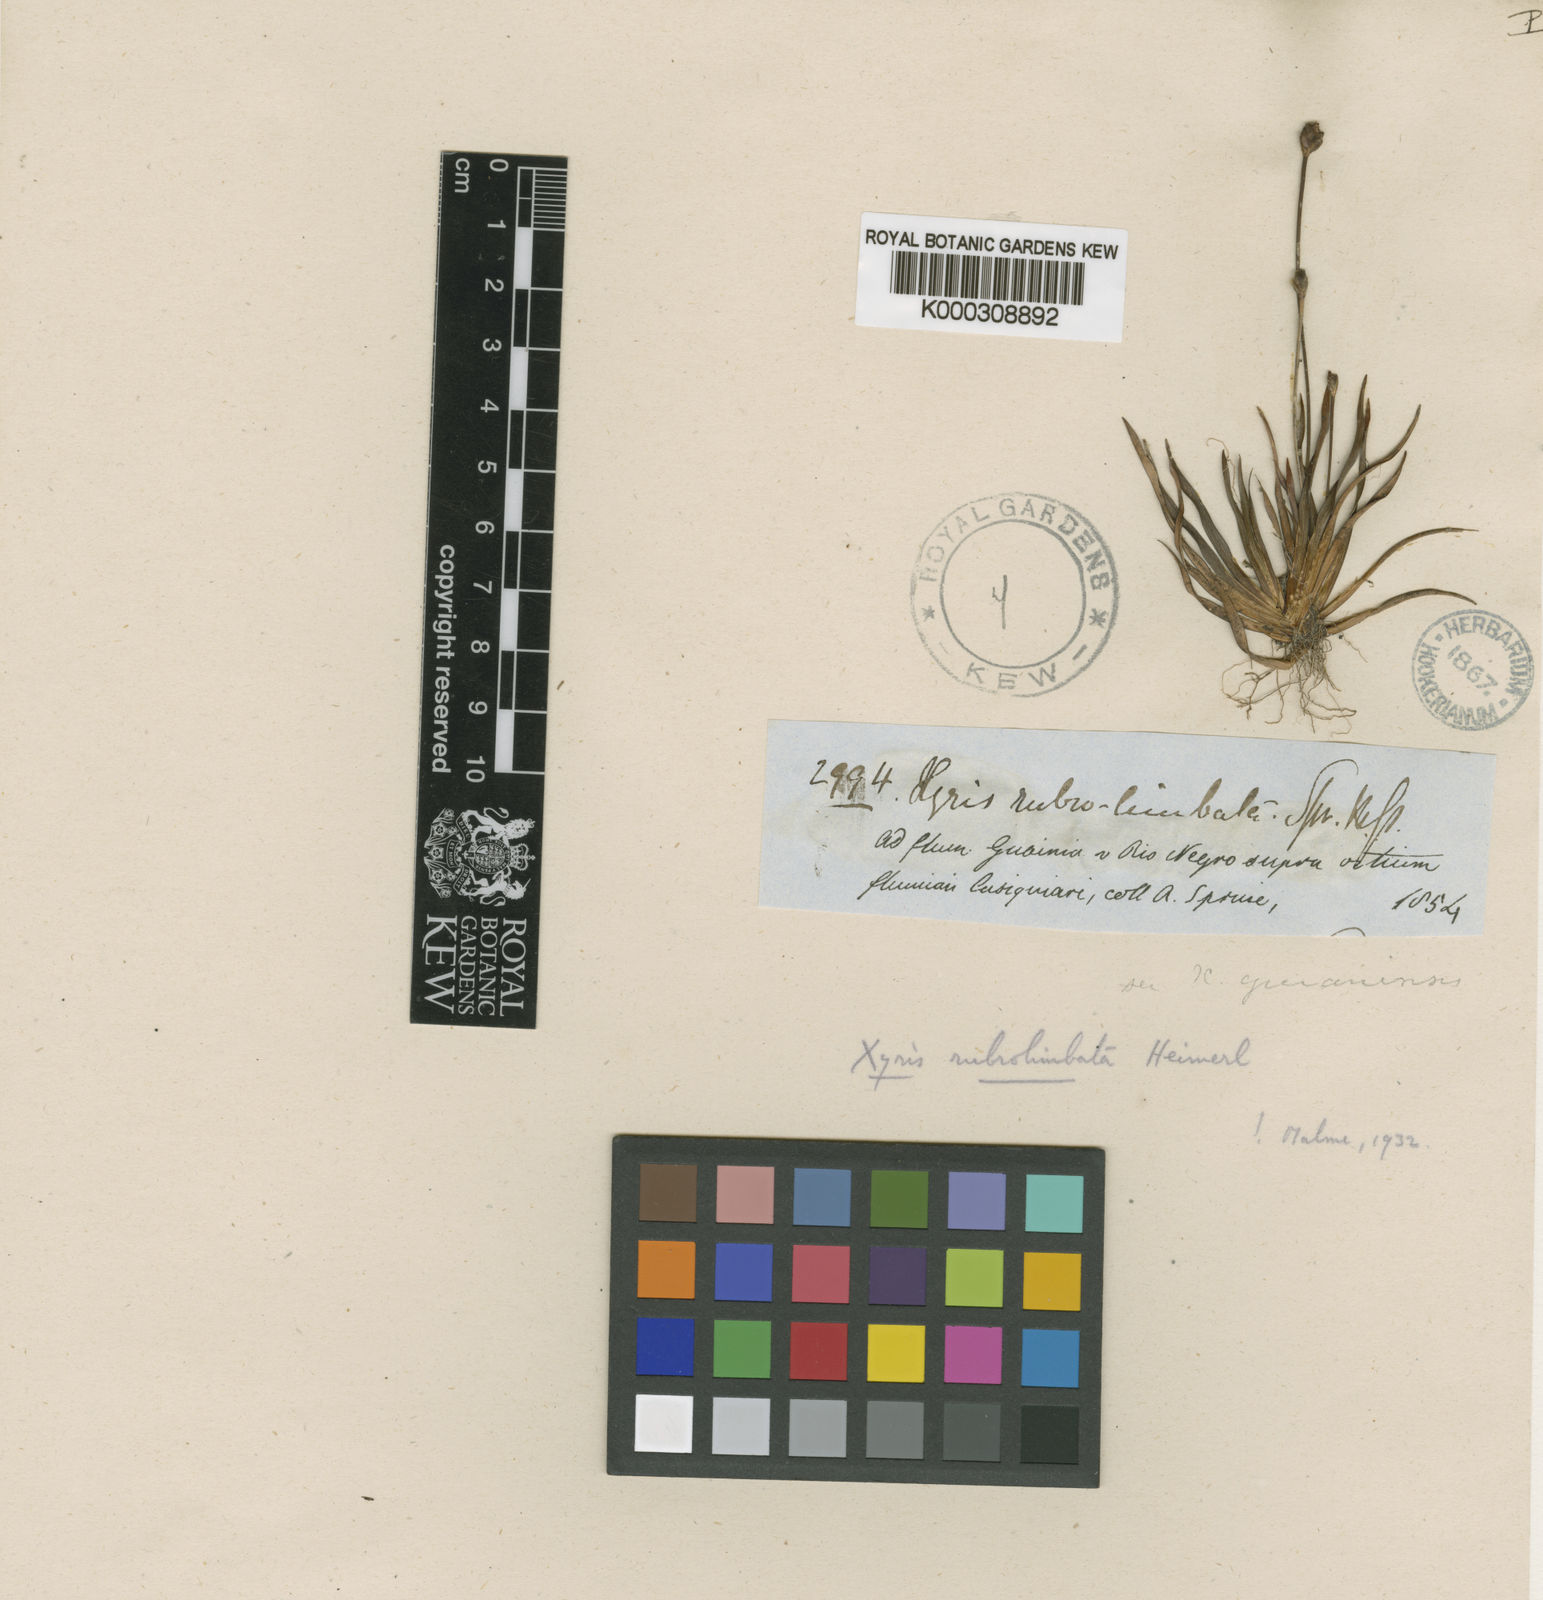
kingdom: Plantae
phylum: Tracheophyta
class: Liliopsida
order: Poales
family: Xyridaceae
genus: Xyris
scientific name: Xyris rubrolimbata
